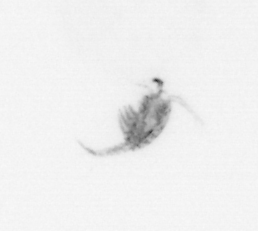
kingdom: Animalia
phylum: Arthropoda
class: Copepoda
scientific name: Copepoda
